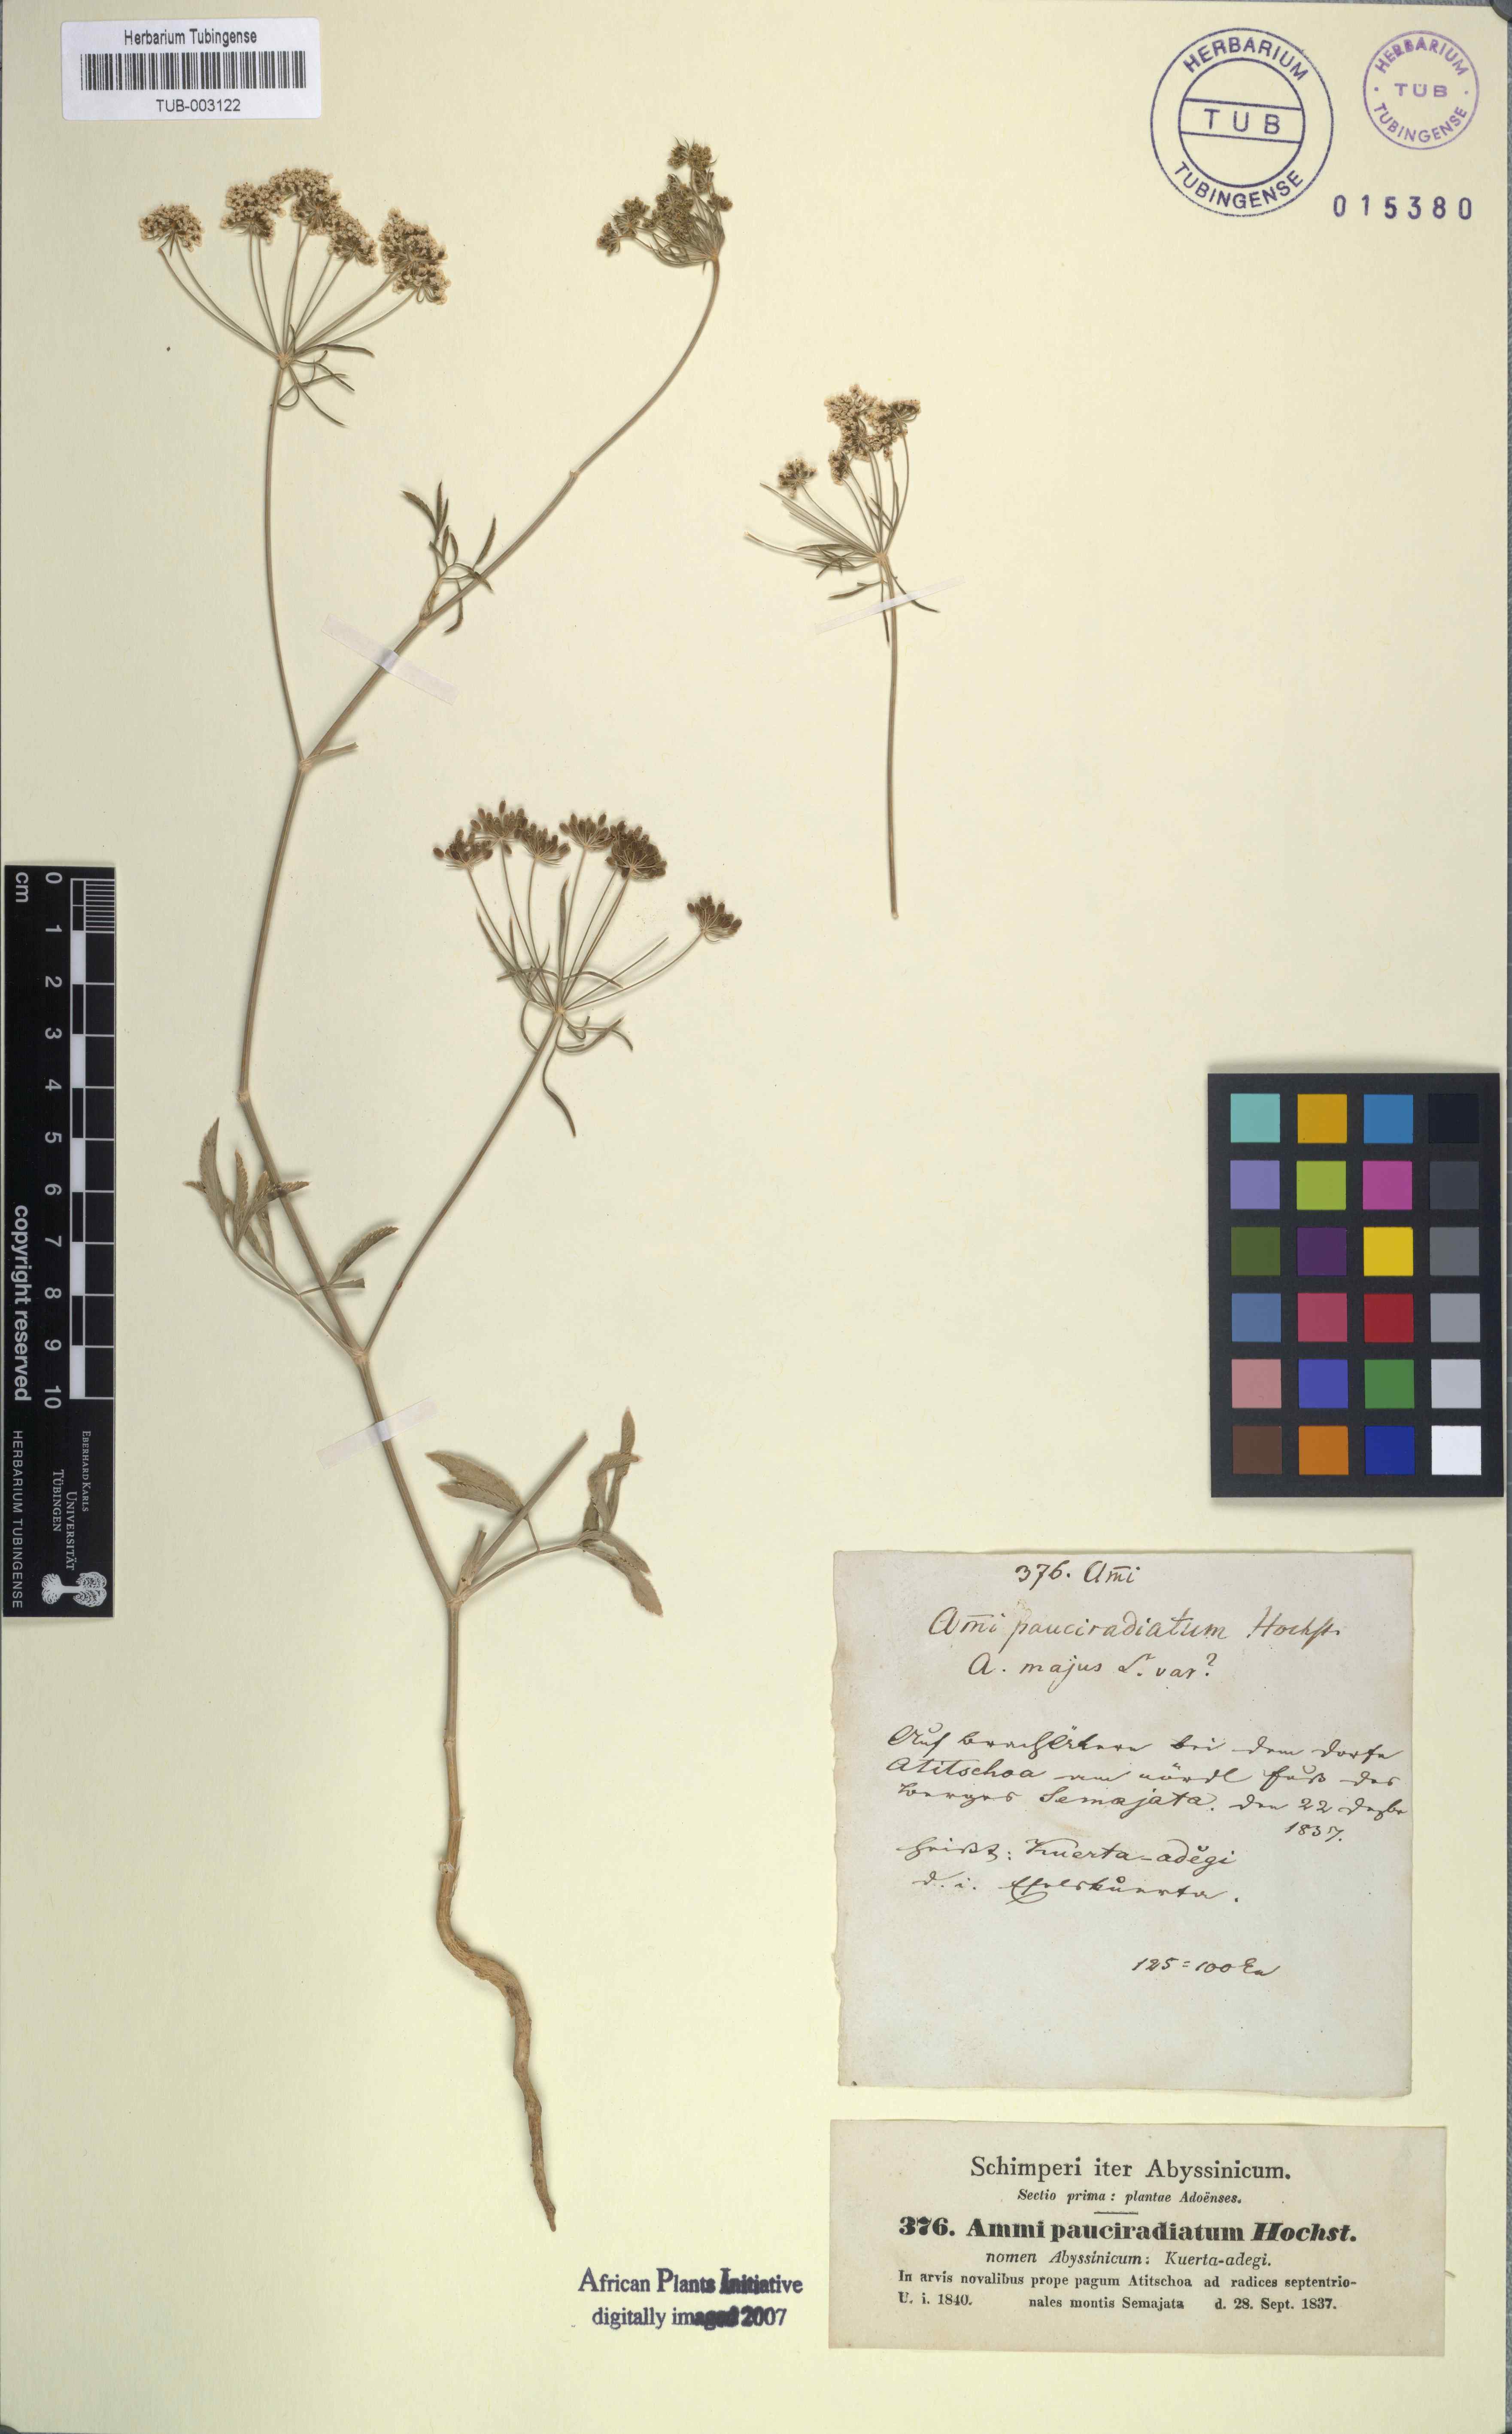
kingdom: Plantae
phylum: Tracheophyta
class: Magnoliopsida
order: Apiales
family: Apiaceae
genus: Ammi
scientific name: Ammi majus
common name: Bullwort
